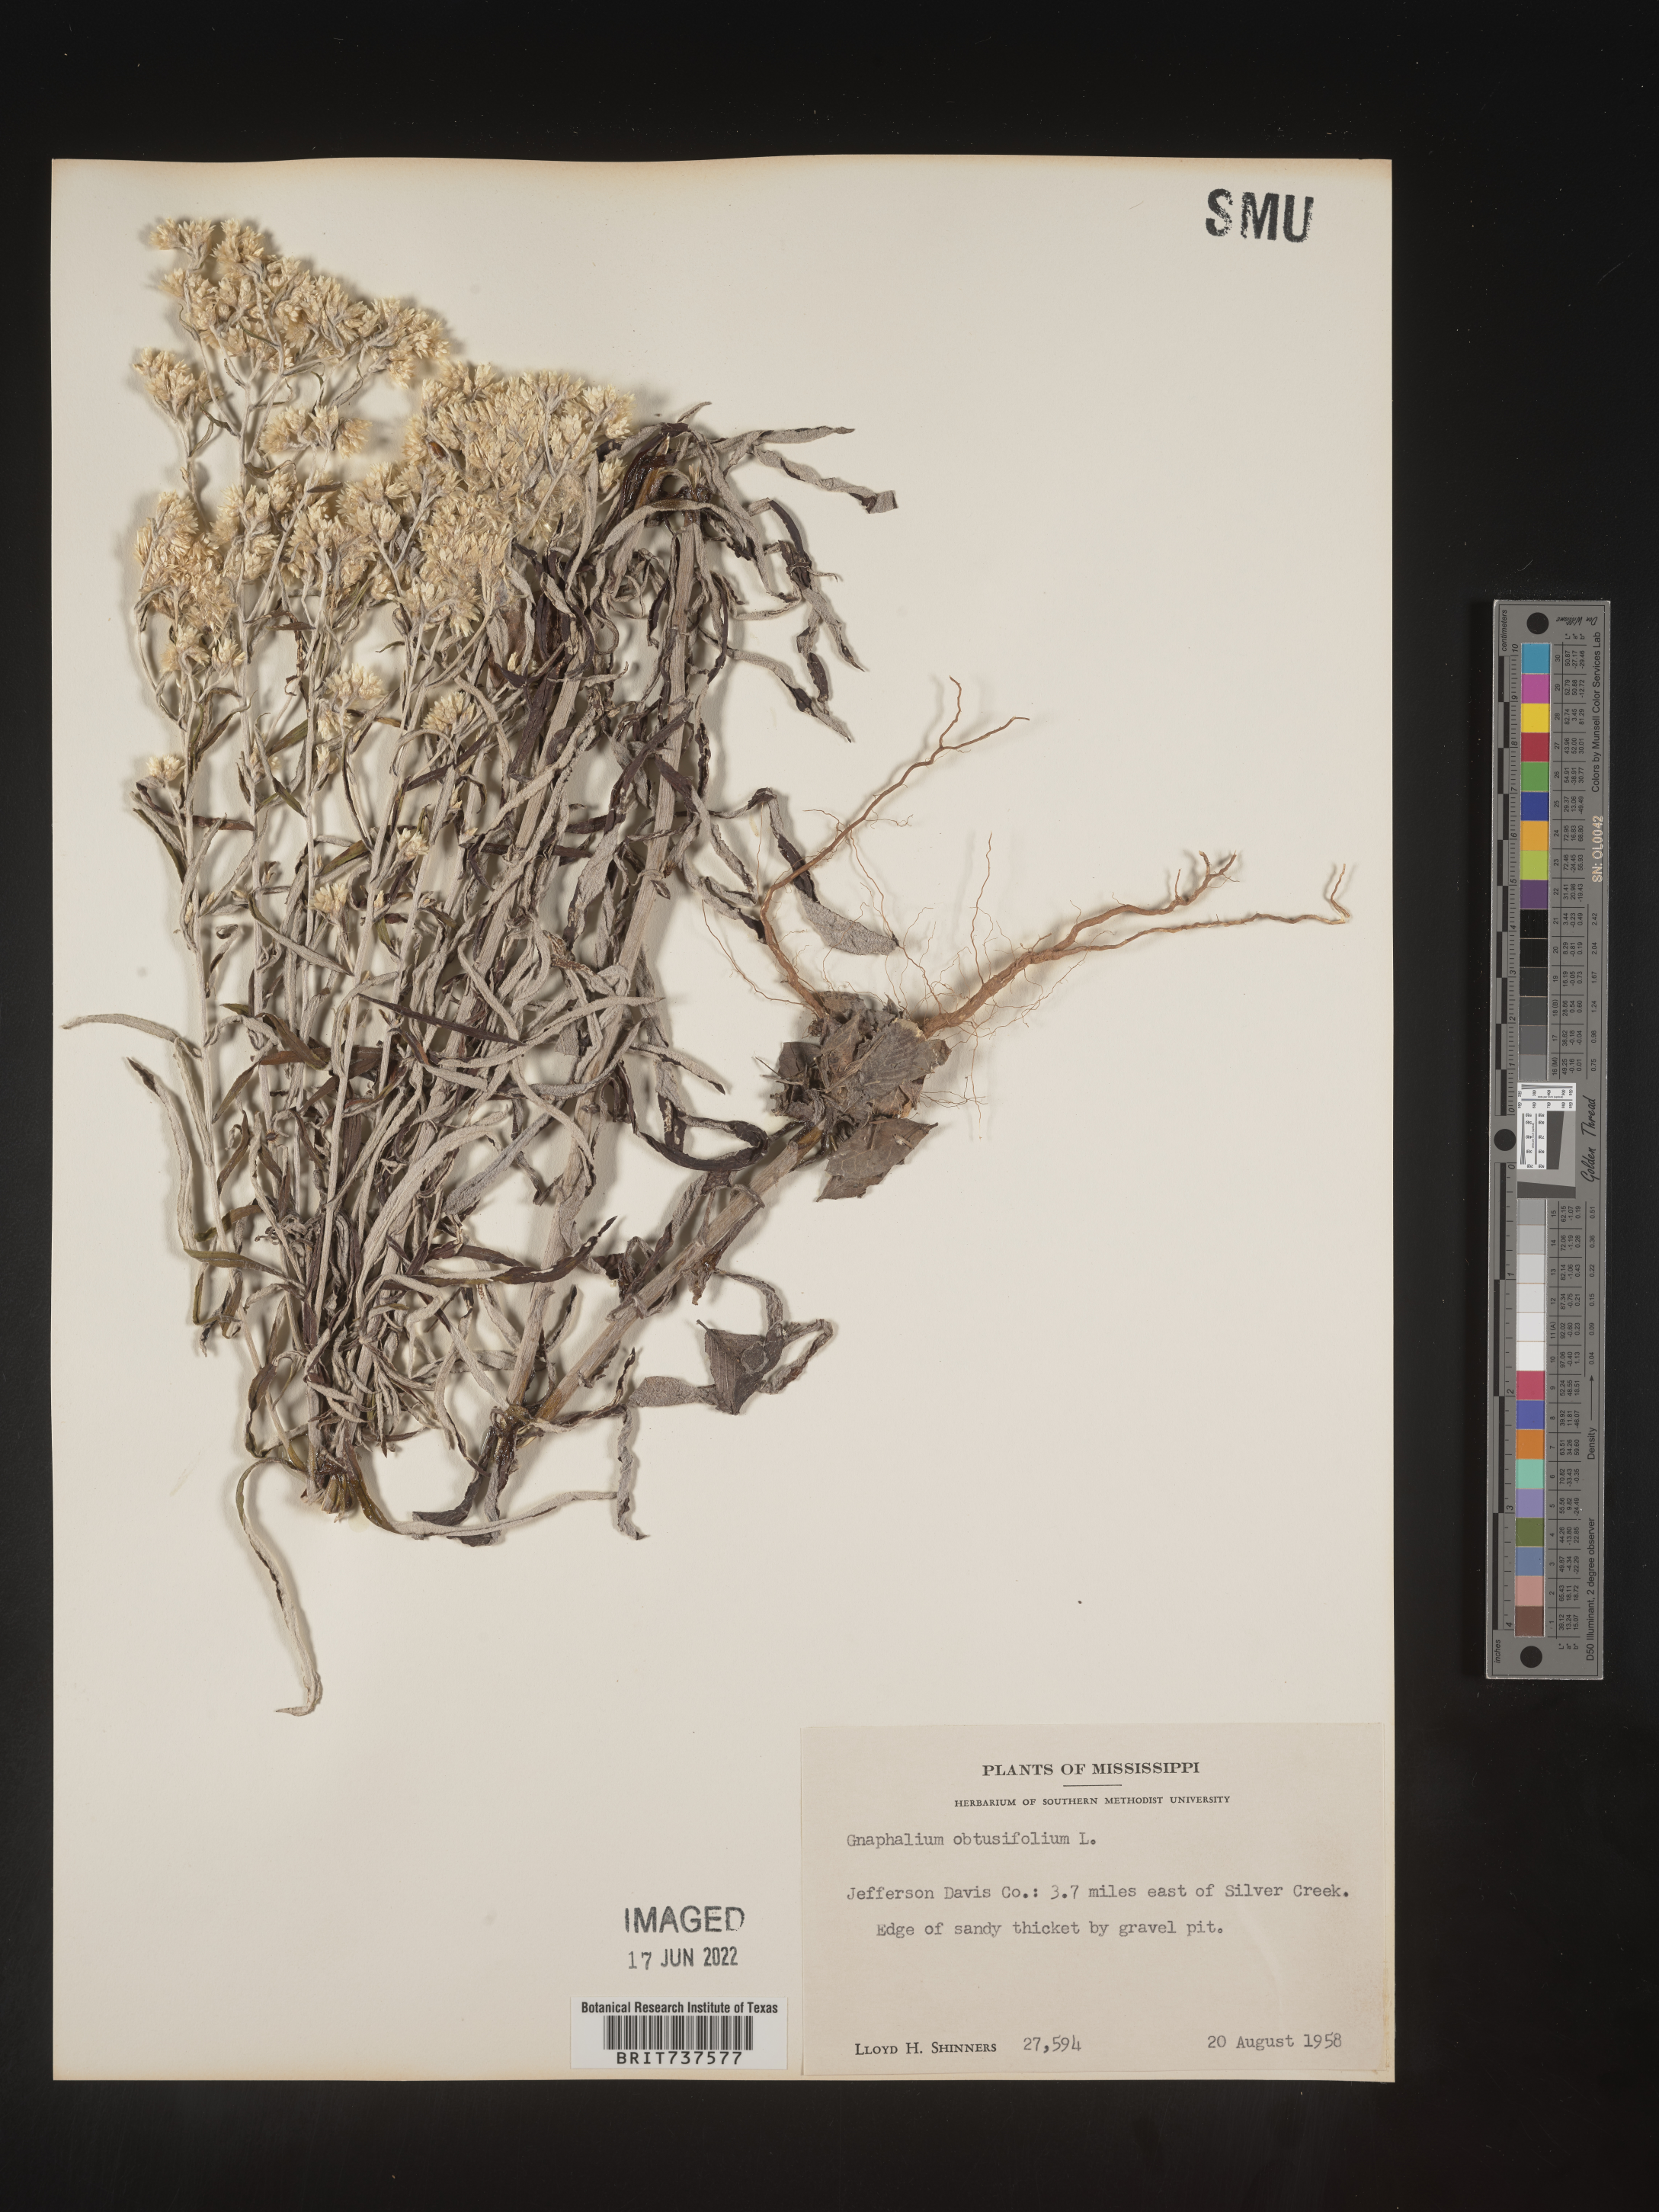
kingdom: Plantae
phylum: Tracheophyta
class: Magnoliopsida
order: Asterales
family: Asteraceae
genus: Pseudognaphalium
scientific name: Pseudognaphalium obtusifolium
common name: Eastern rabbit-tobacco
